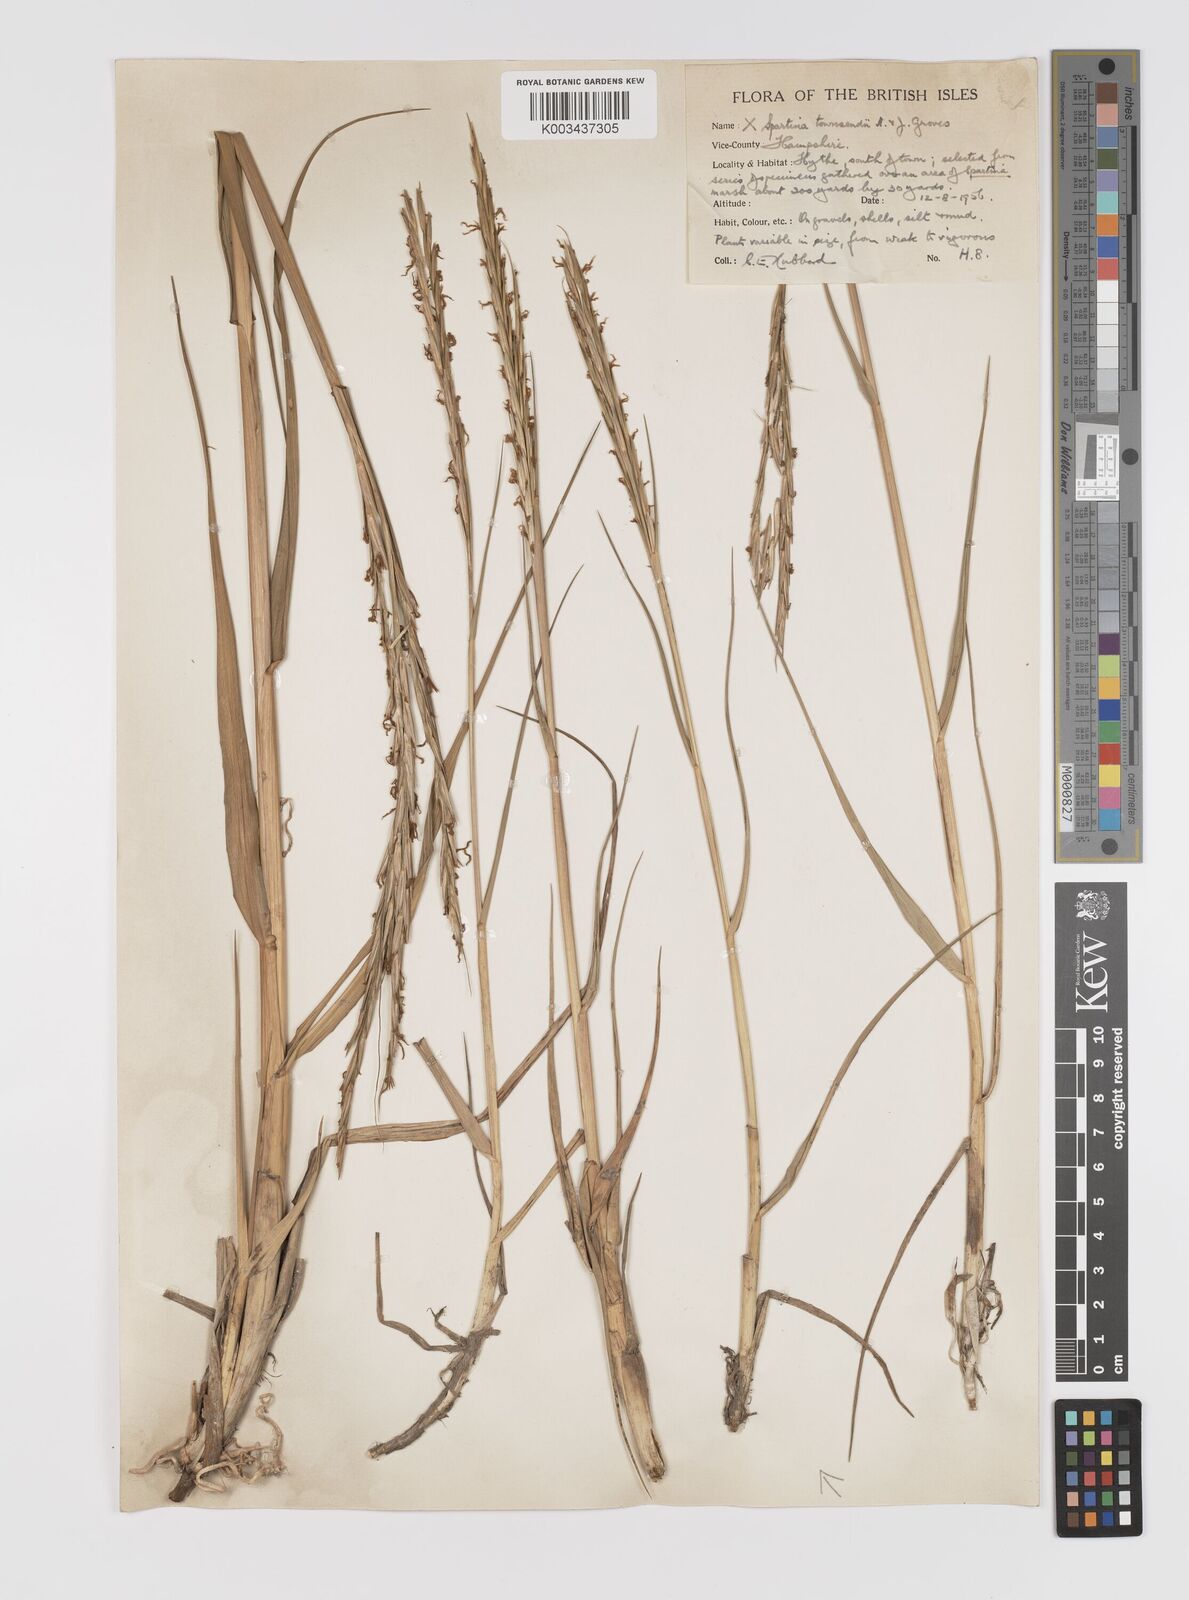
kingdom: Plantae
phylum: Tracheophyta
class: Liliopsida
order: Poales
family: Poaceae
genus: Sporobolus
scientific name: Sporobolus townsendii
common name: Townsend's cordgrass
